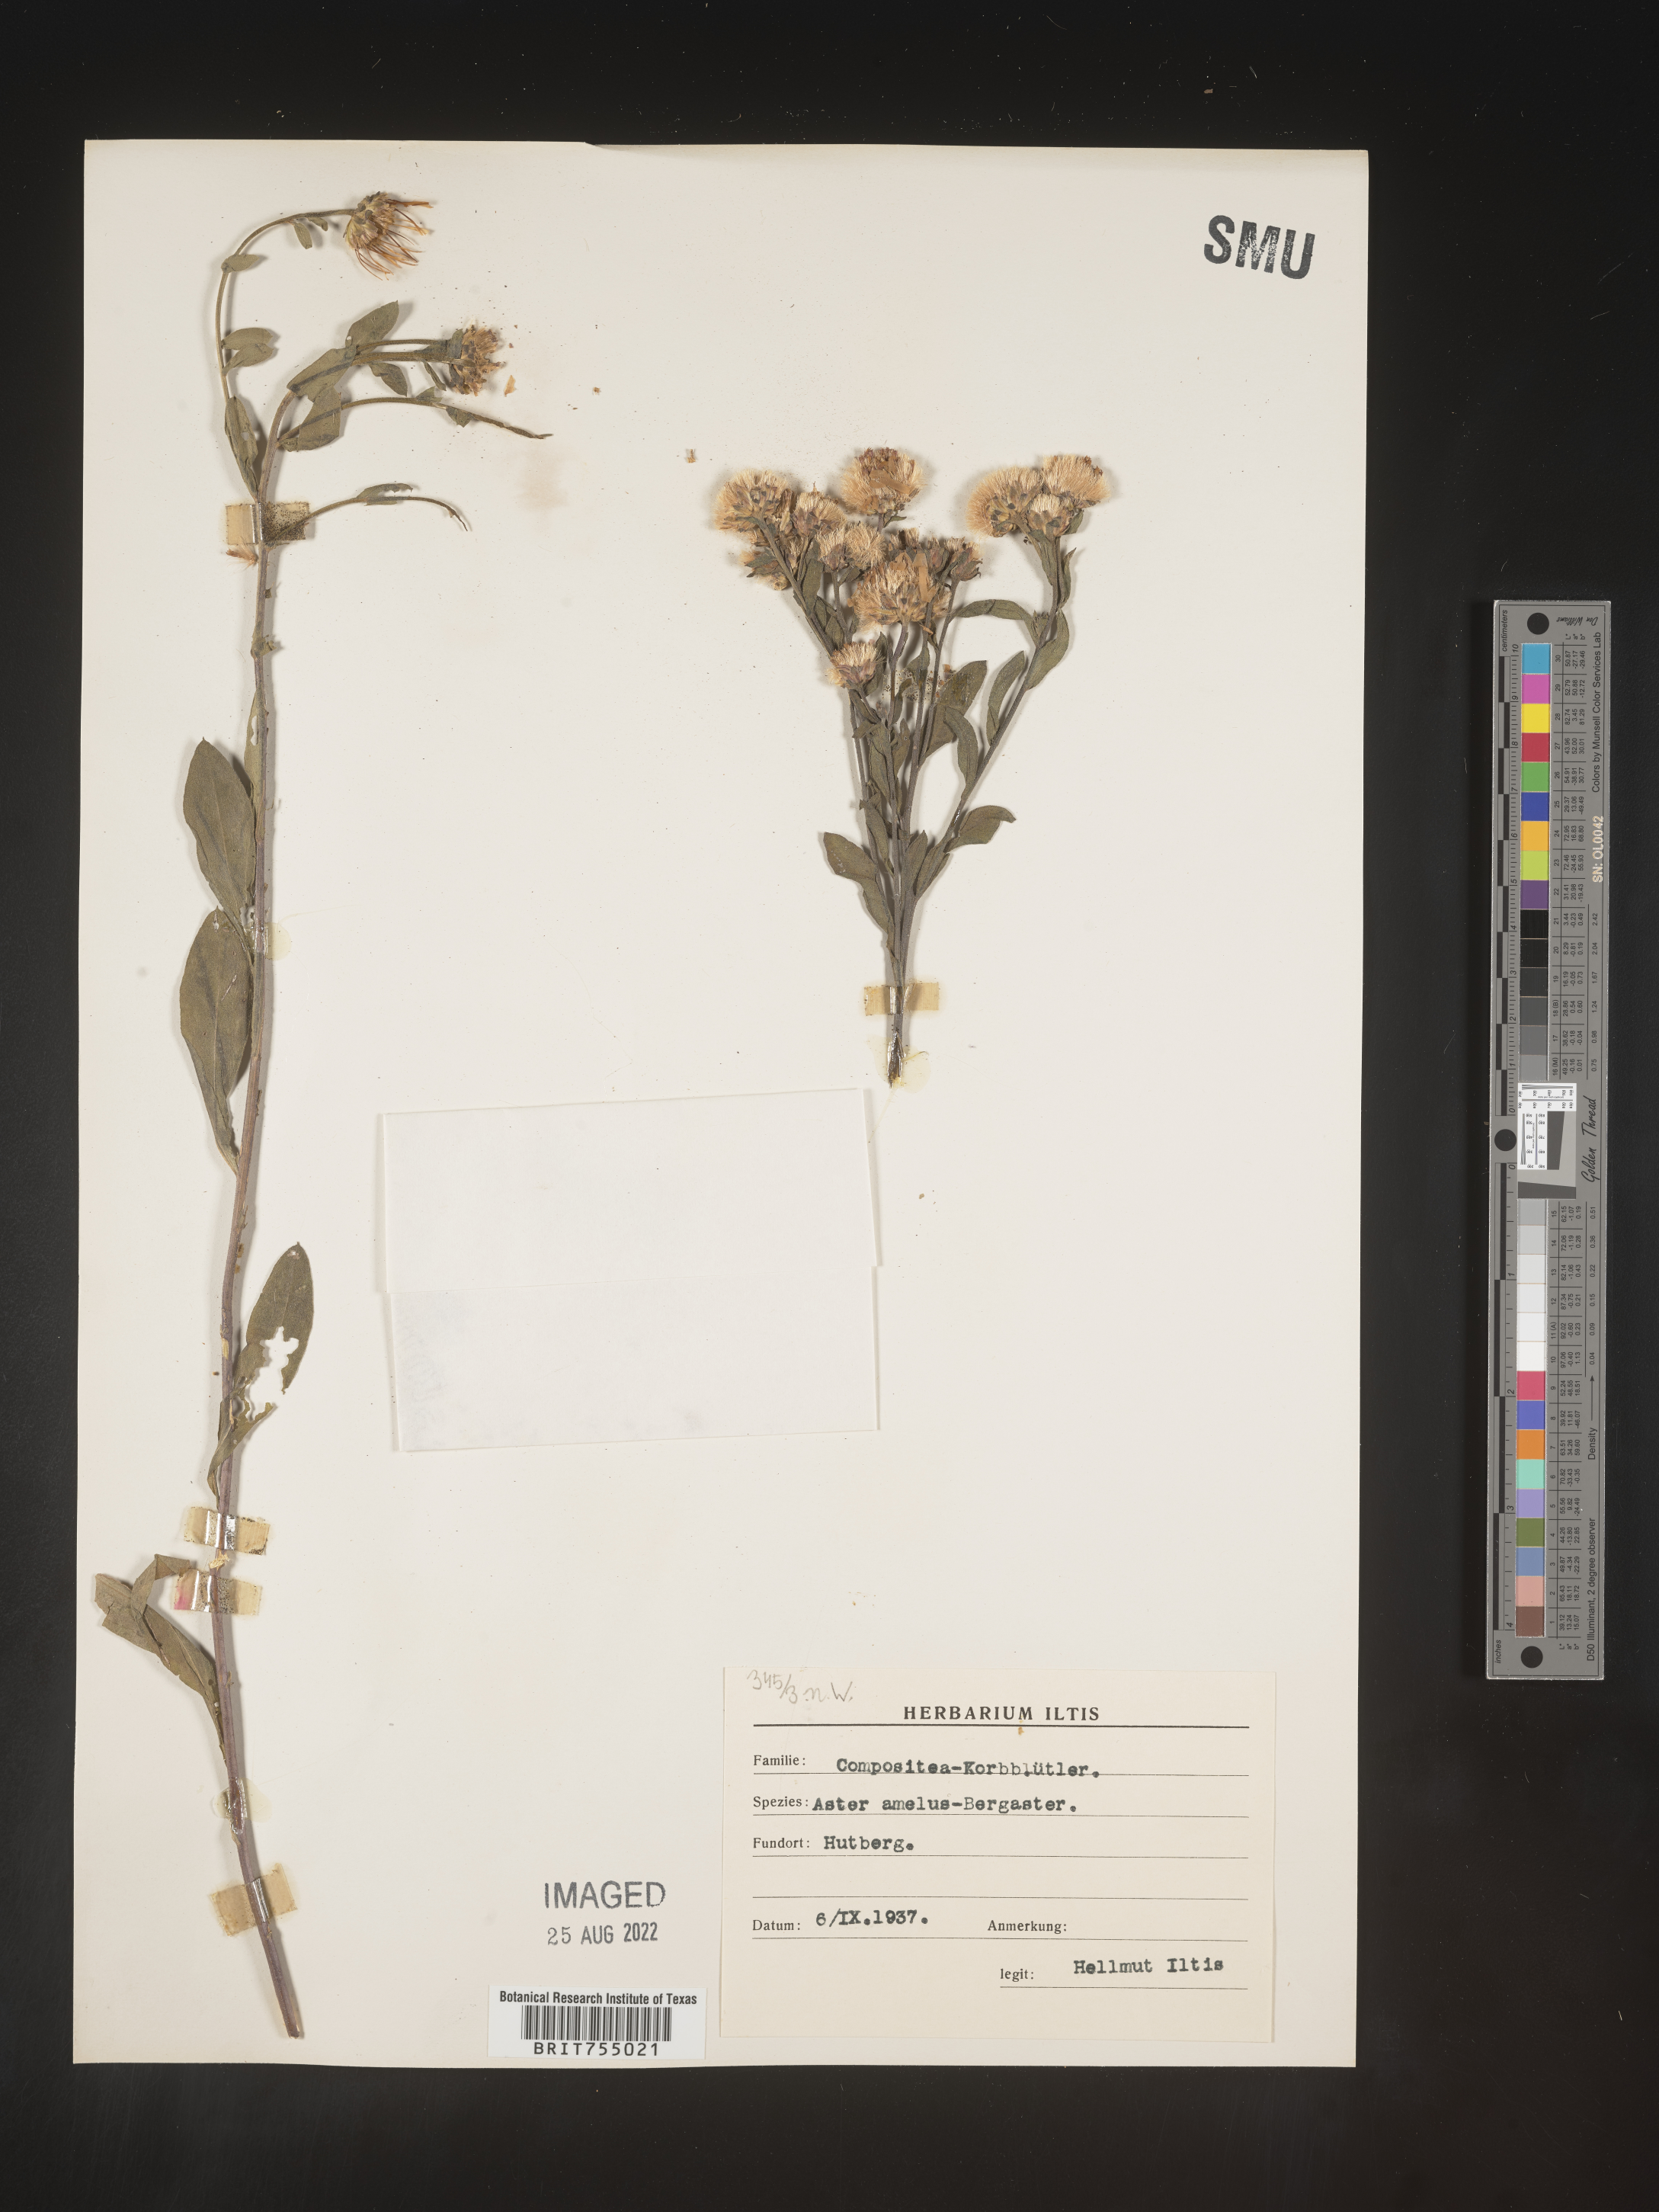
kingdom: Plantae
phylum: Tracheophyta
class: Magnoliopsida
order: Asterales
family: Asteraceae
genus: Symphyotrichum
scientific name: Symphyotrichum
